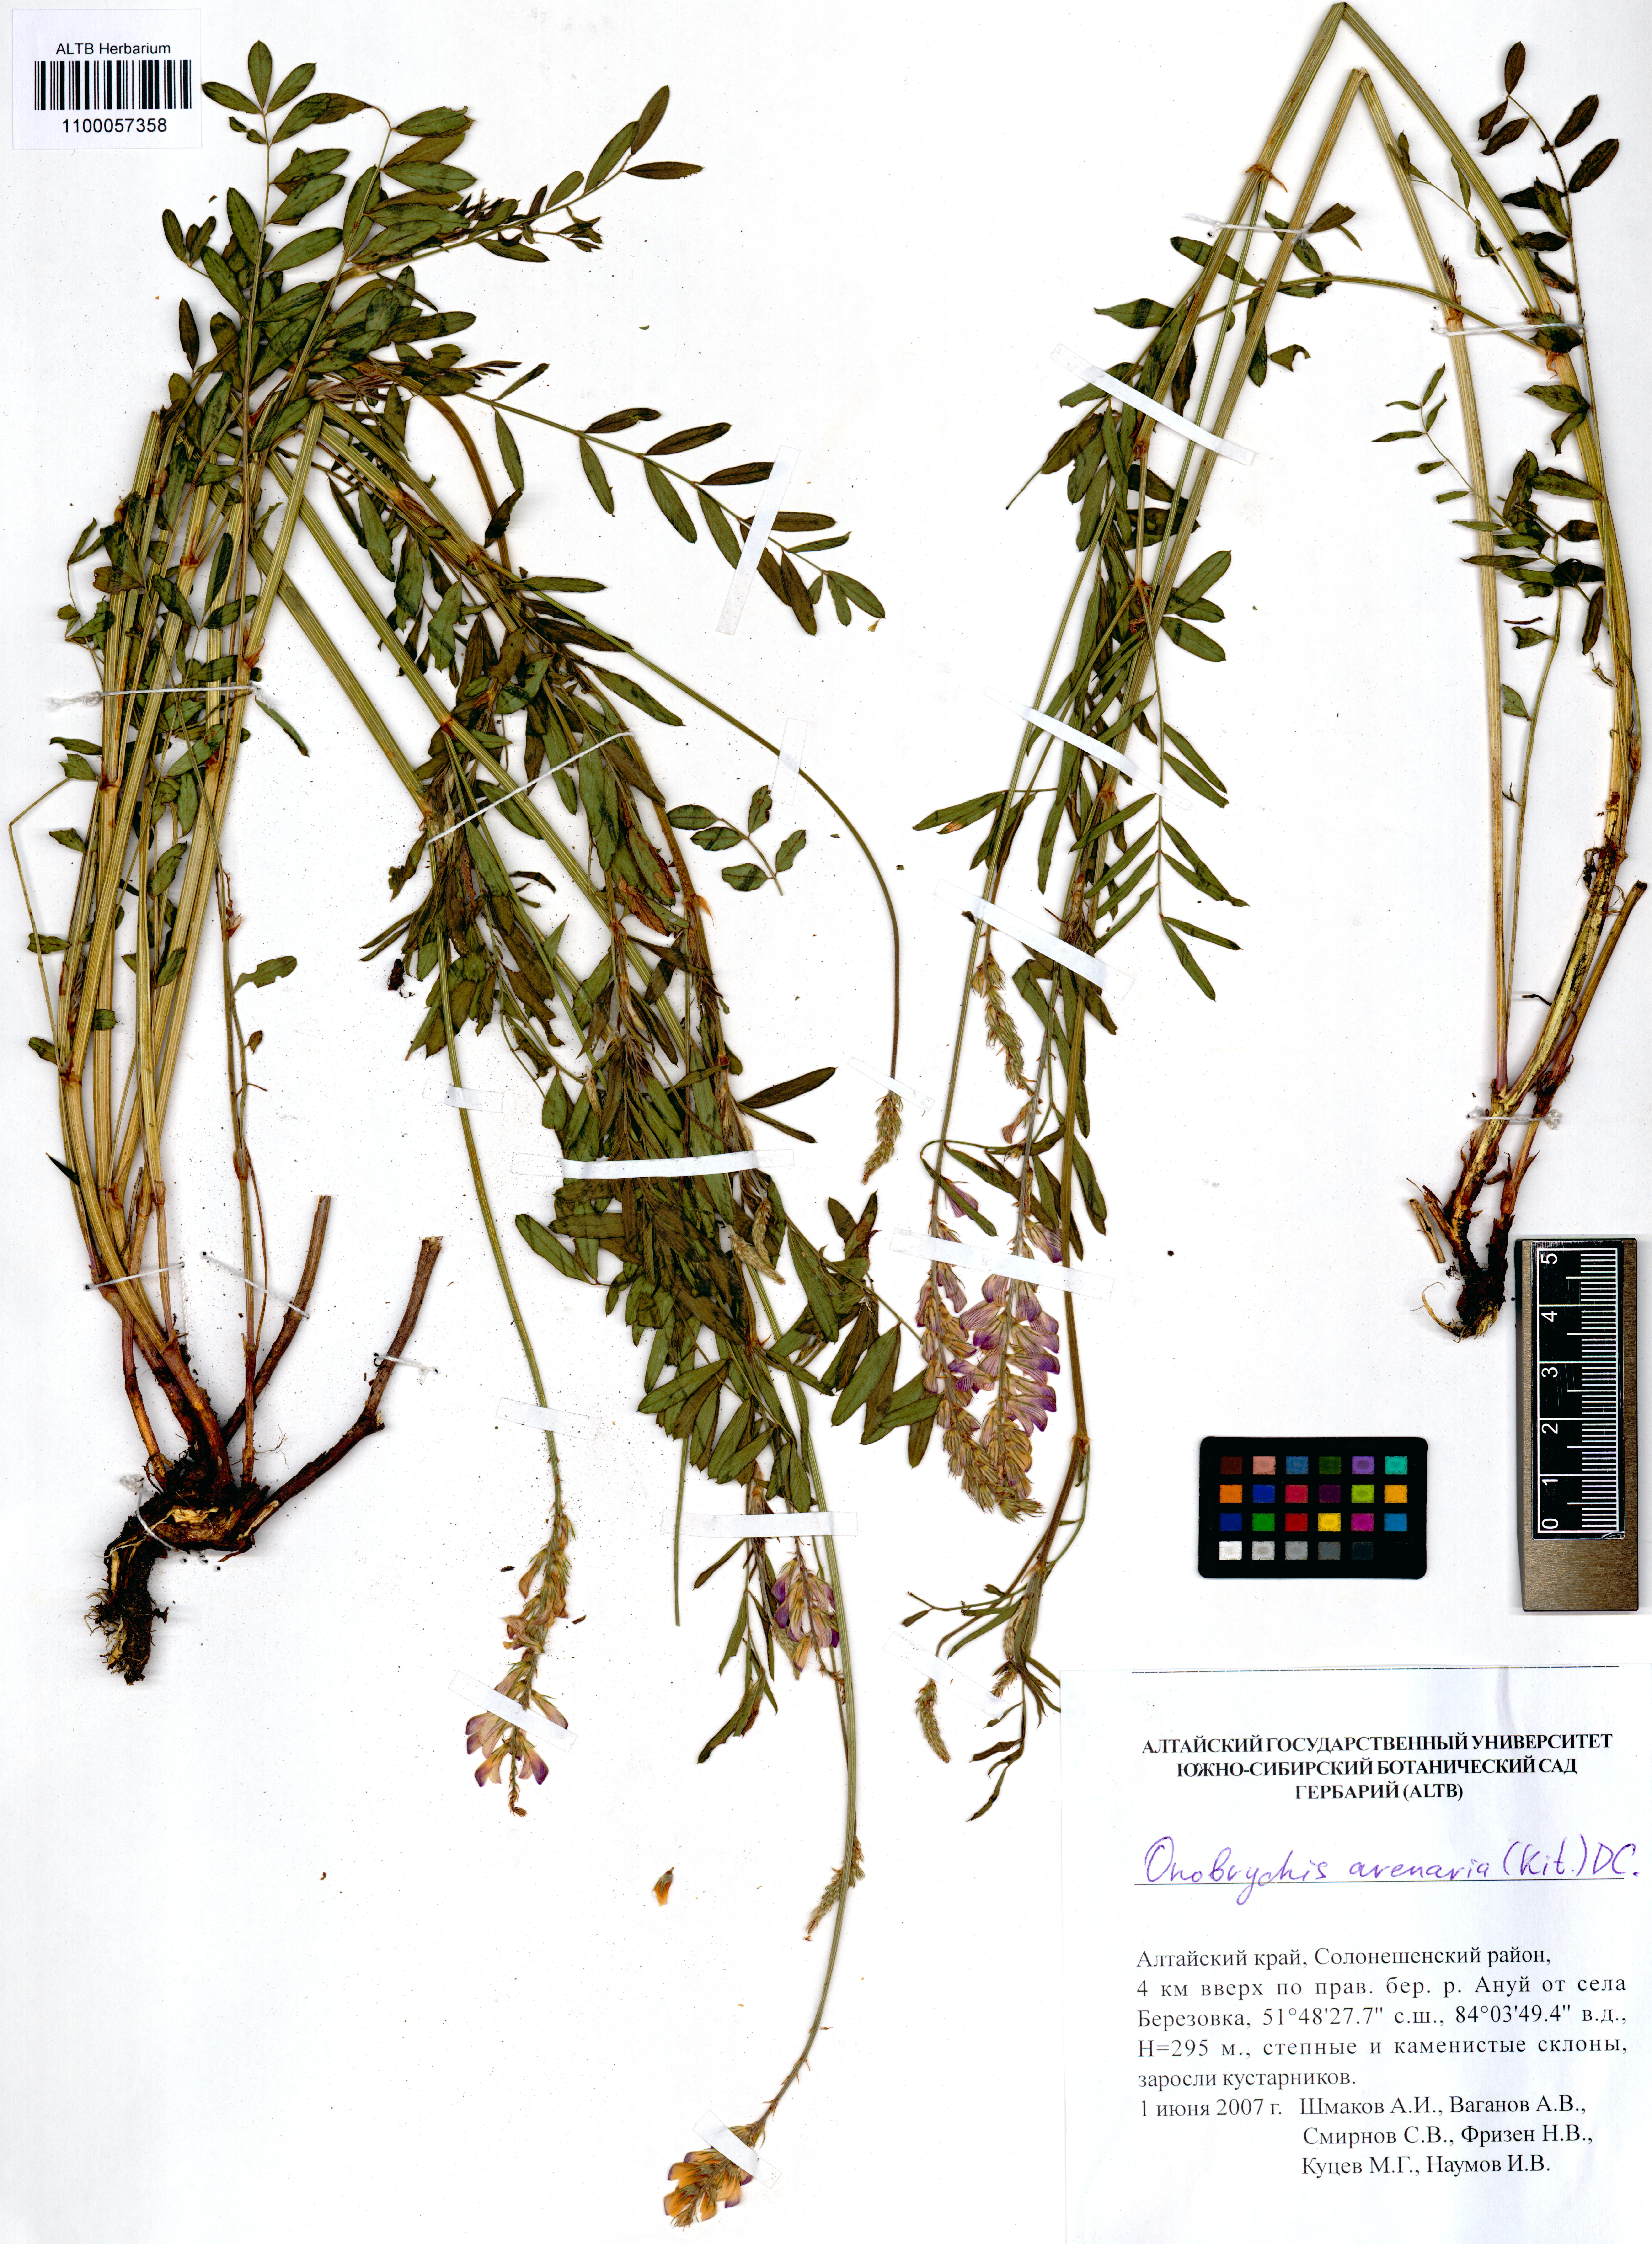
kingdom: Plantae
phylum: Tracheophyta
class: Magnoliopsida
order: Fabales
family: Fabaceae
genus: Onobrychis
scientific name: Onobrychis arenaria
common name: Sand esparcet
